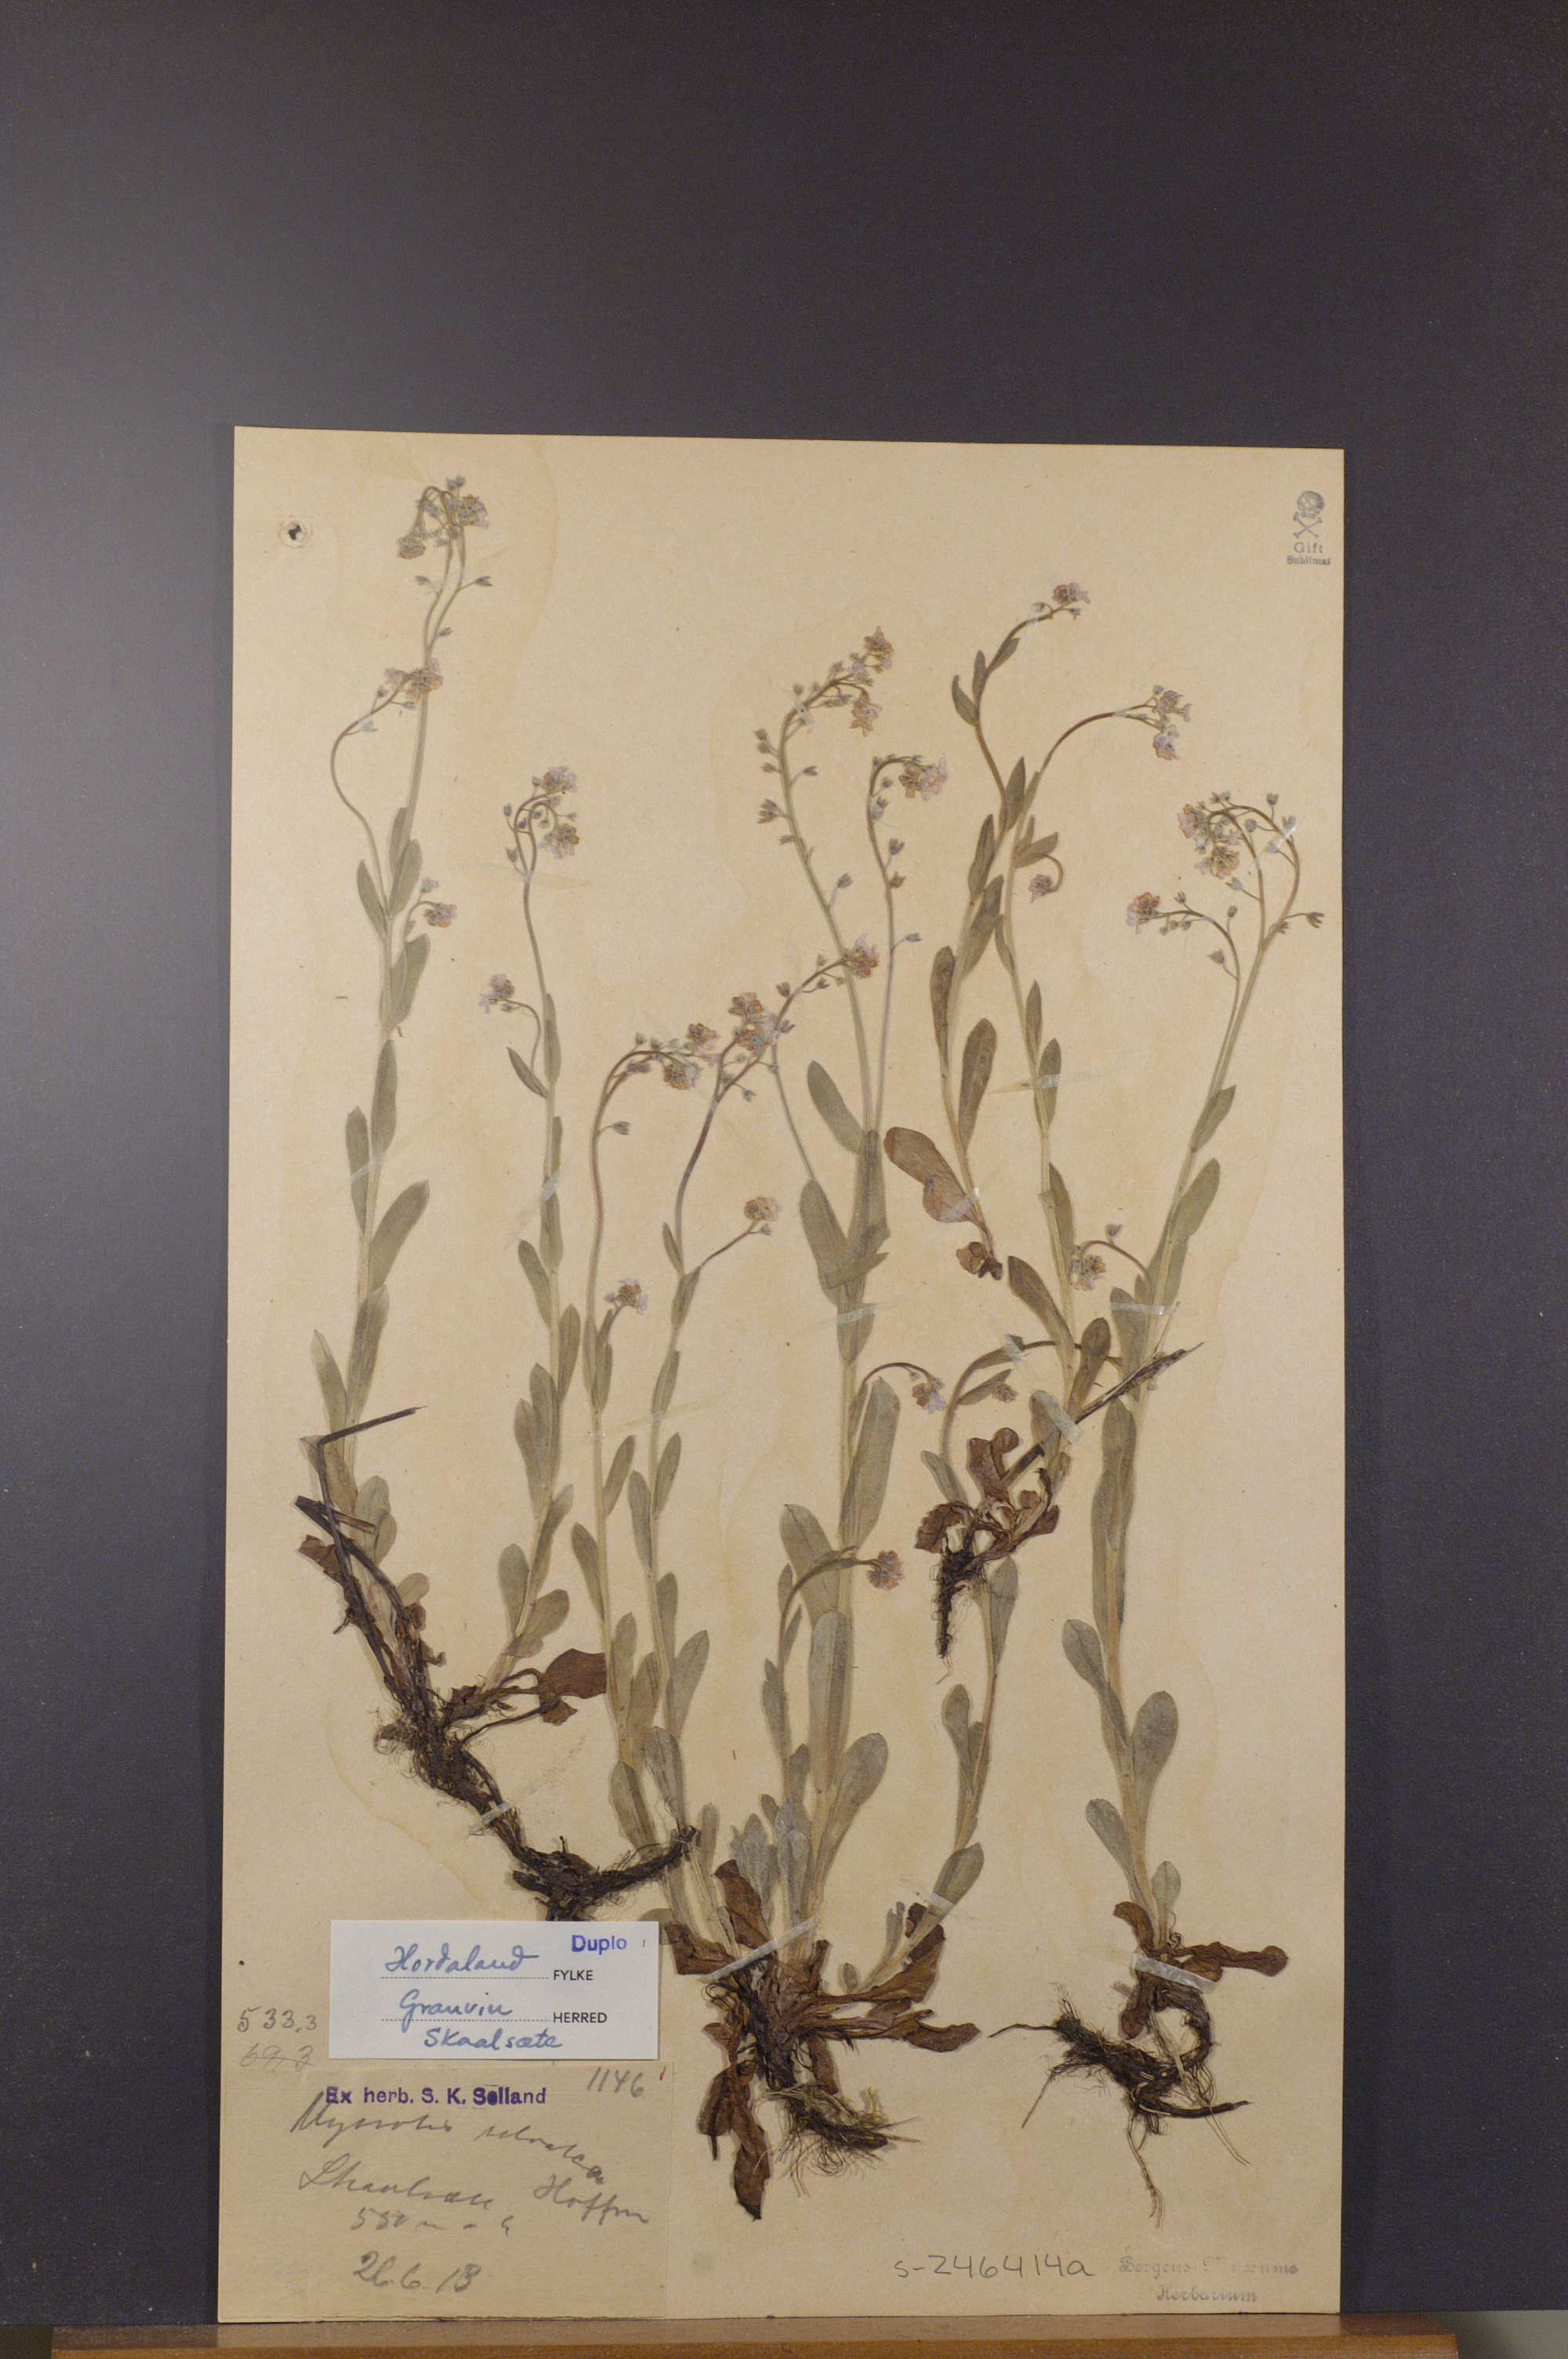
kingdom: Plantae
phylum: Tracheophyta
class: Magnoliopsida
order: Boraginales
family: Boraginaceae
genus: Myosotis
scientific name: Myosotis decumbens
